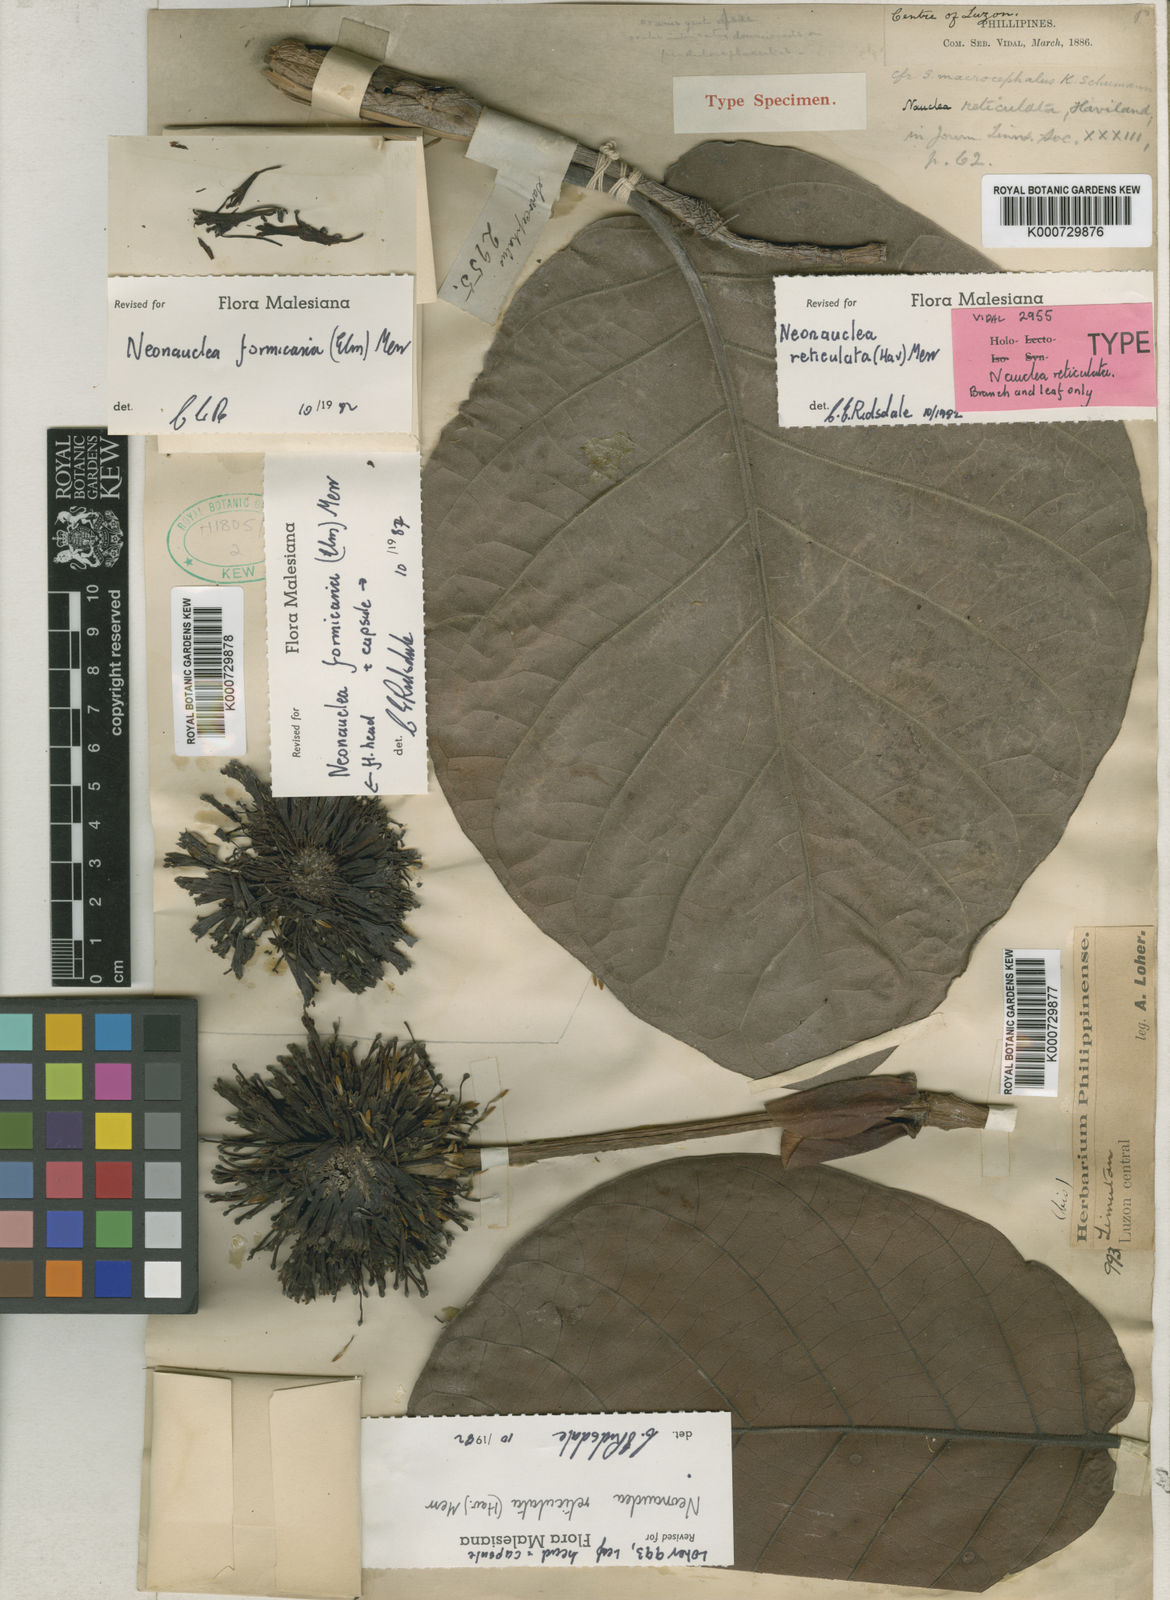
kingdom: Plantae
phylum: Tracheophyta
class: Magnoliopsida
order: Gentianales
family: Rubiaceae
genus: Neonauclea
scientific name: Neonauclea reticulata
